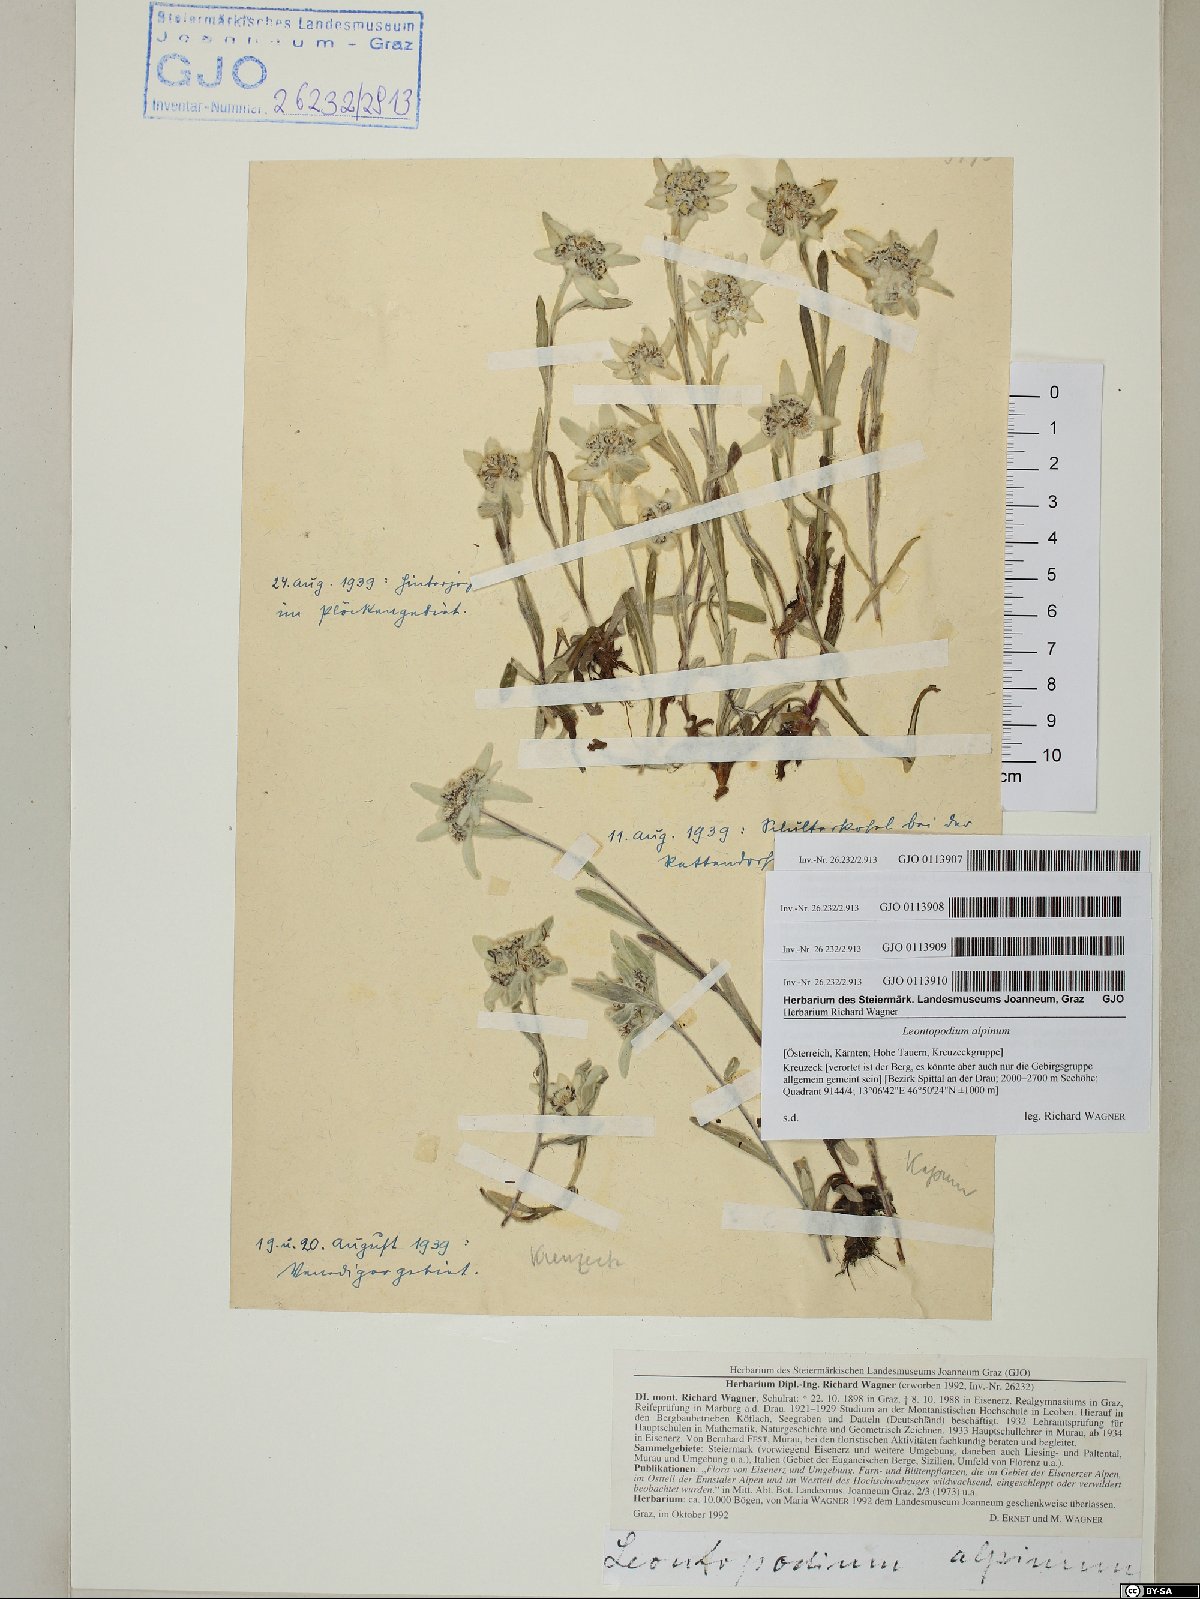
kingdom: Plantae
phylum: Tracheophyta
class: Magnoliopsida
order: Asterales
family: Asteraceae
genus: Leontopodium
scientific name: Leontopodium nivale
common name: Edelweiss
